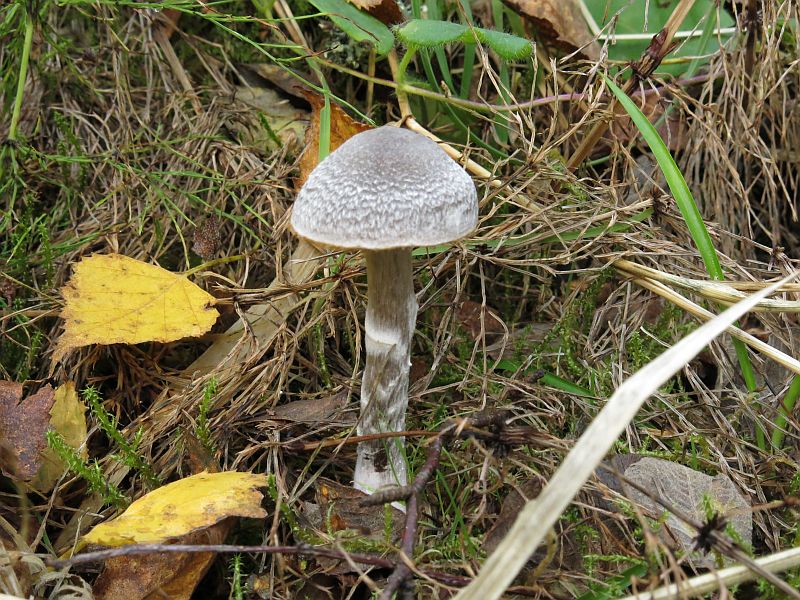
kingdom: Fungi
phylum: Basidiomycota
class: Agaricomycetes
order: Agaricales
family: Cortinariaceae
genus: Cortinarius
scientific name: Cortinarius hemitrichus
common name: hvidfnugget slørhat
